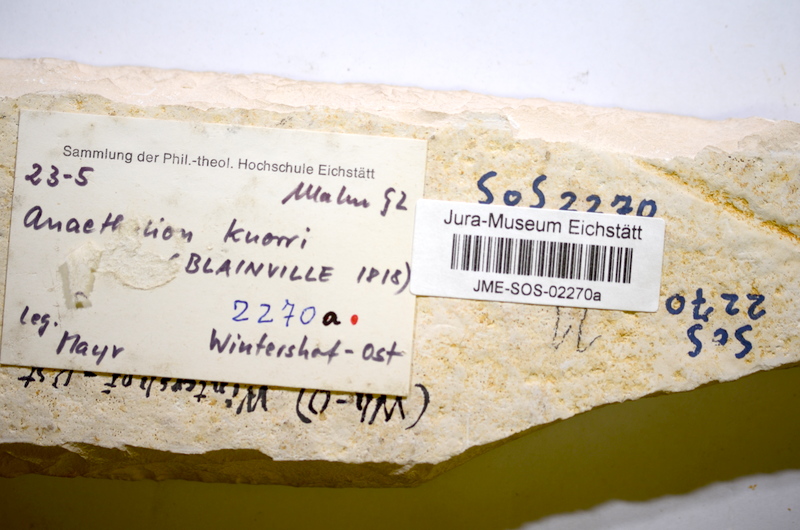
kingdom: Animalia
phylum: Chordata
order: Elopiformes
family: Anaethalionidae
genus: Anaethalion
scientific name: Anaethalion knorri
